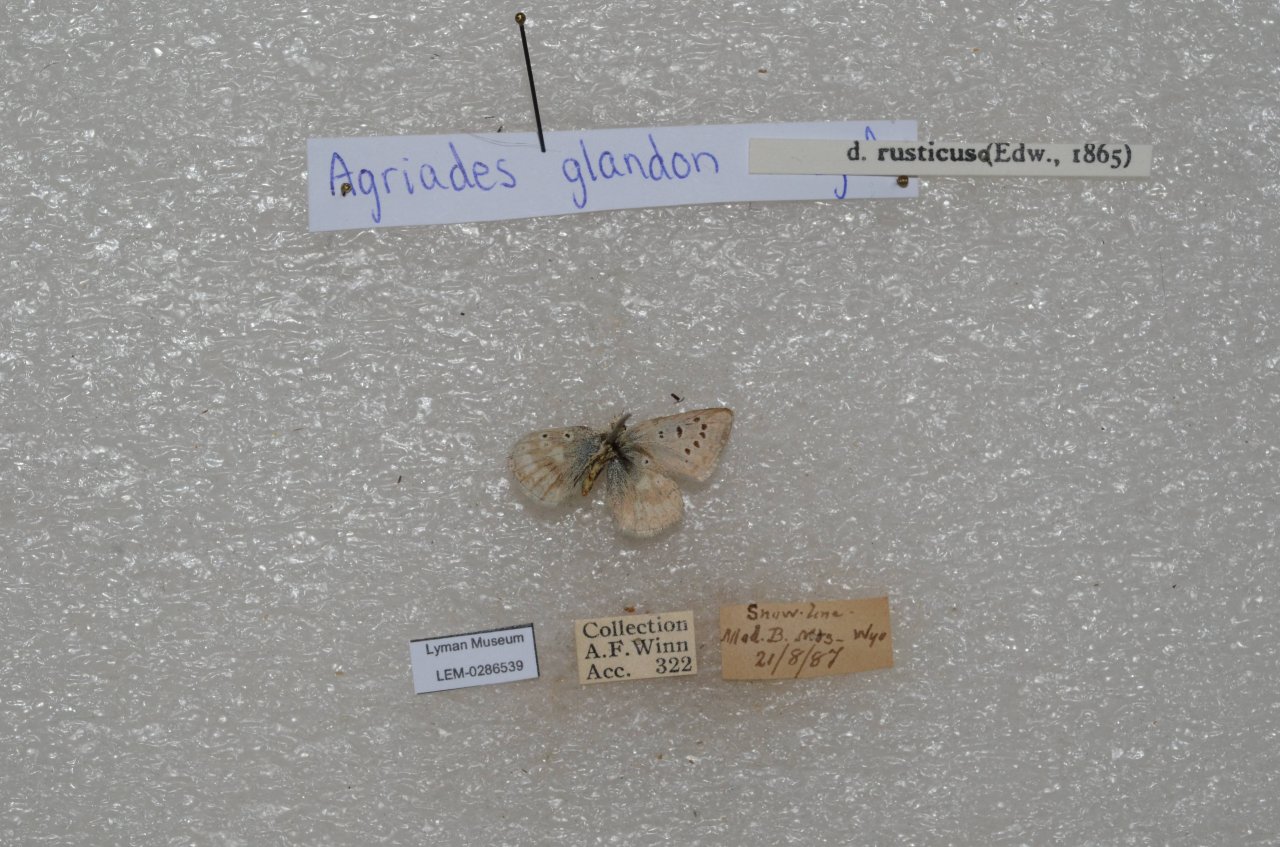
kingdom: Animalia
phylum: Arthropoda
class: Insecta
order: Lepidoptera
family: Lycaenidae
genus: Agriades
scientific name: Agriades glandon
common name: Arctic Blue
